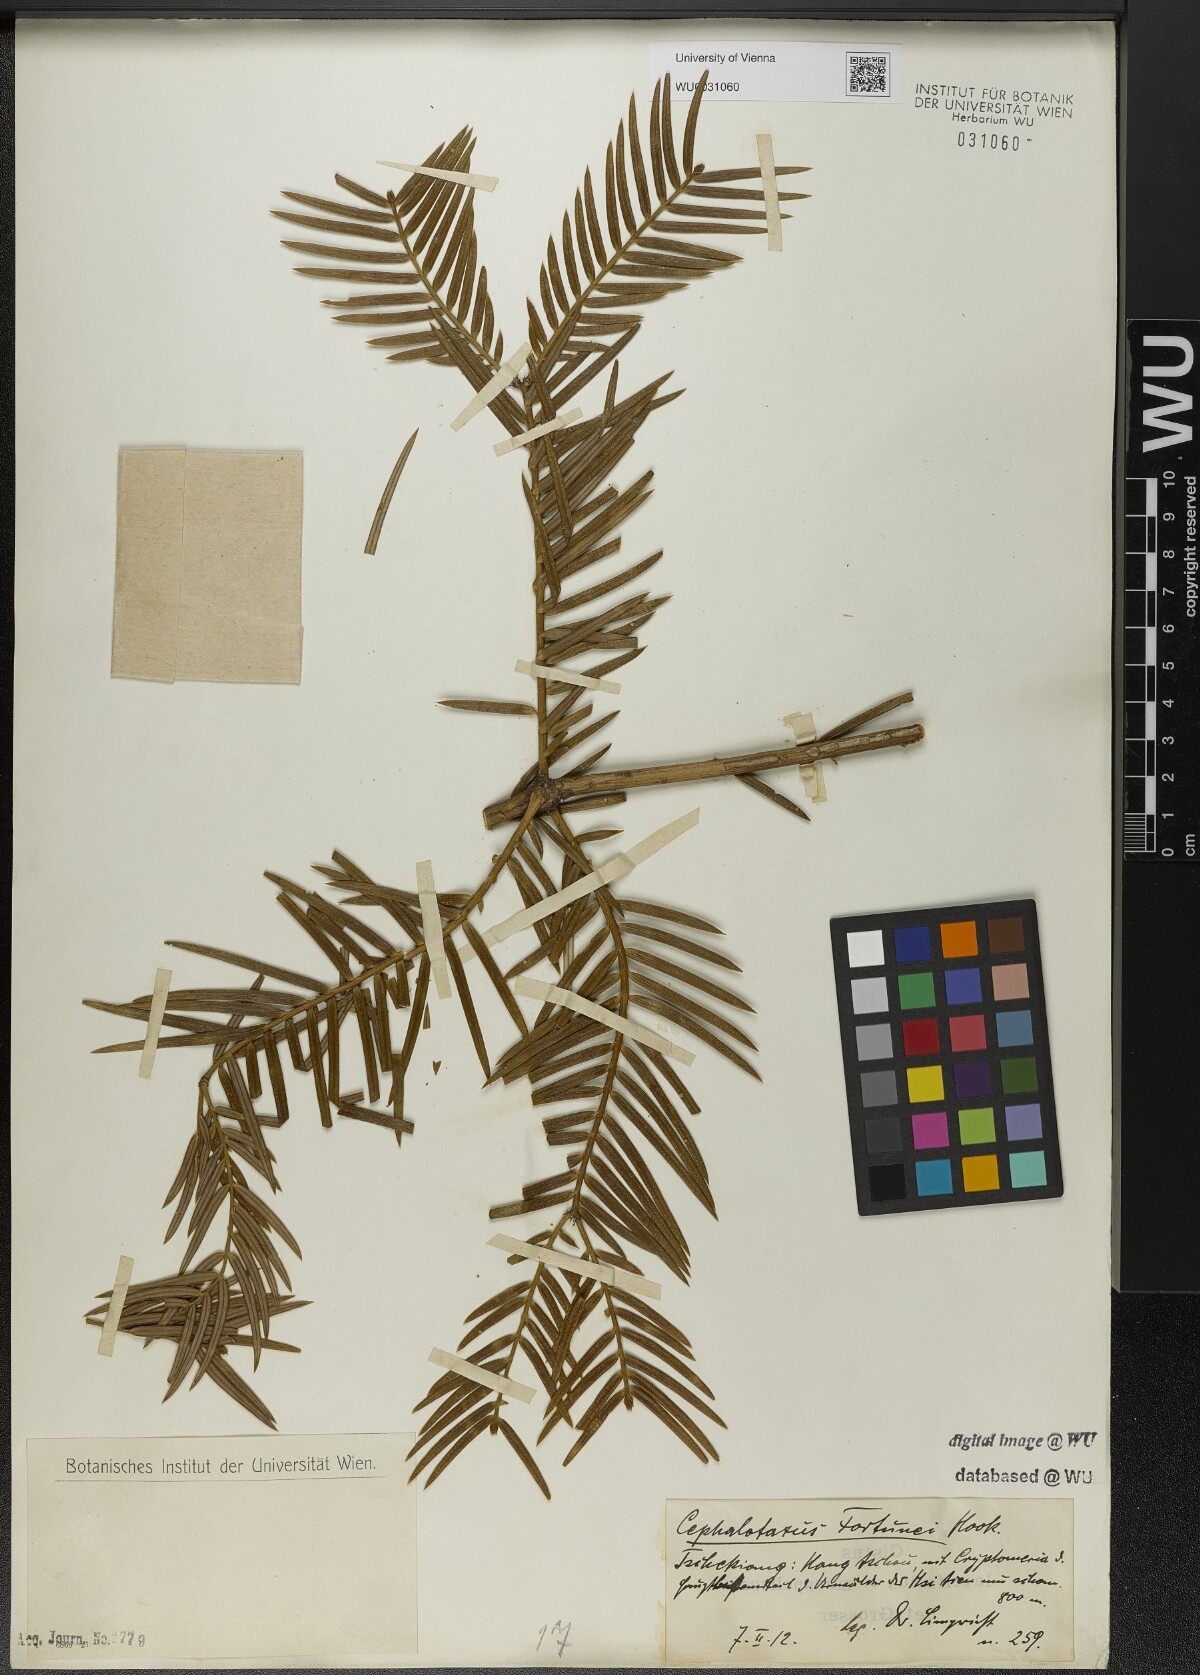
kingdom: Plantae
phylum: Tracheophyta
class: Pinopsida
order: Pinales
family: Cephalotaxaceae
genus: Cephalotaxus
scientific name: Cephalotaxus fortunei
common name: Chinese plum-yew
